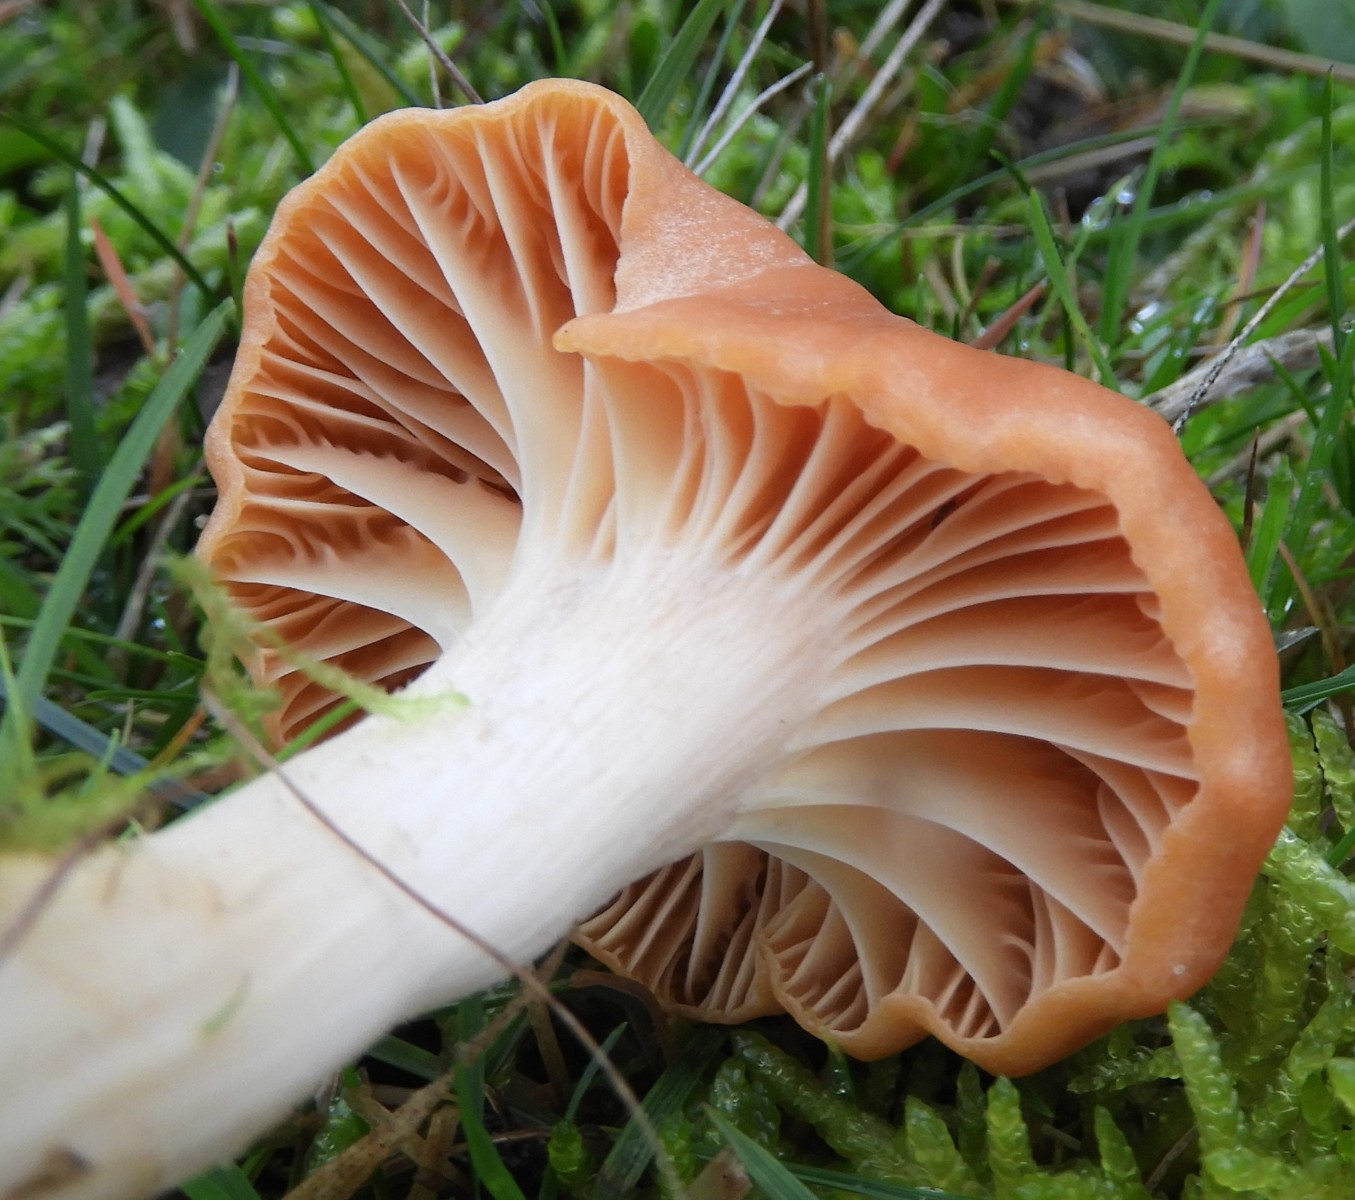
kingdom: Fungi
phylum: Basidiomycota
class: Agaricomycetes
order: Agaricales
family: Hygrophoraceae
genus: Cuphophyllus
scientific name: Cuphophyllus pratensis
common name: eng-vokshat
